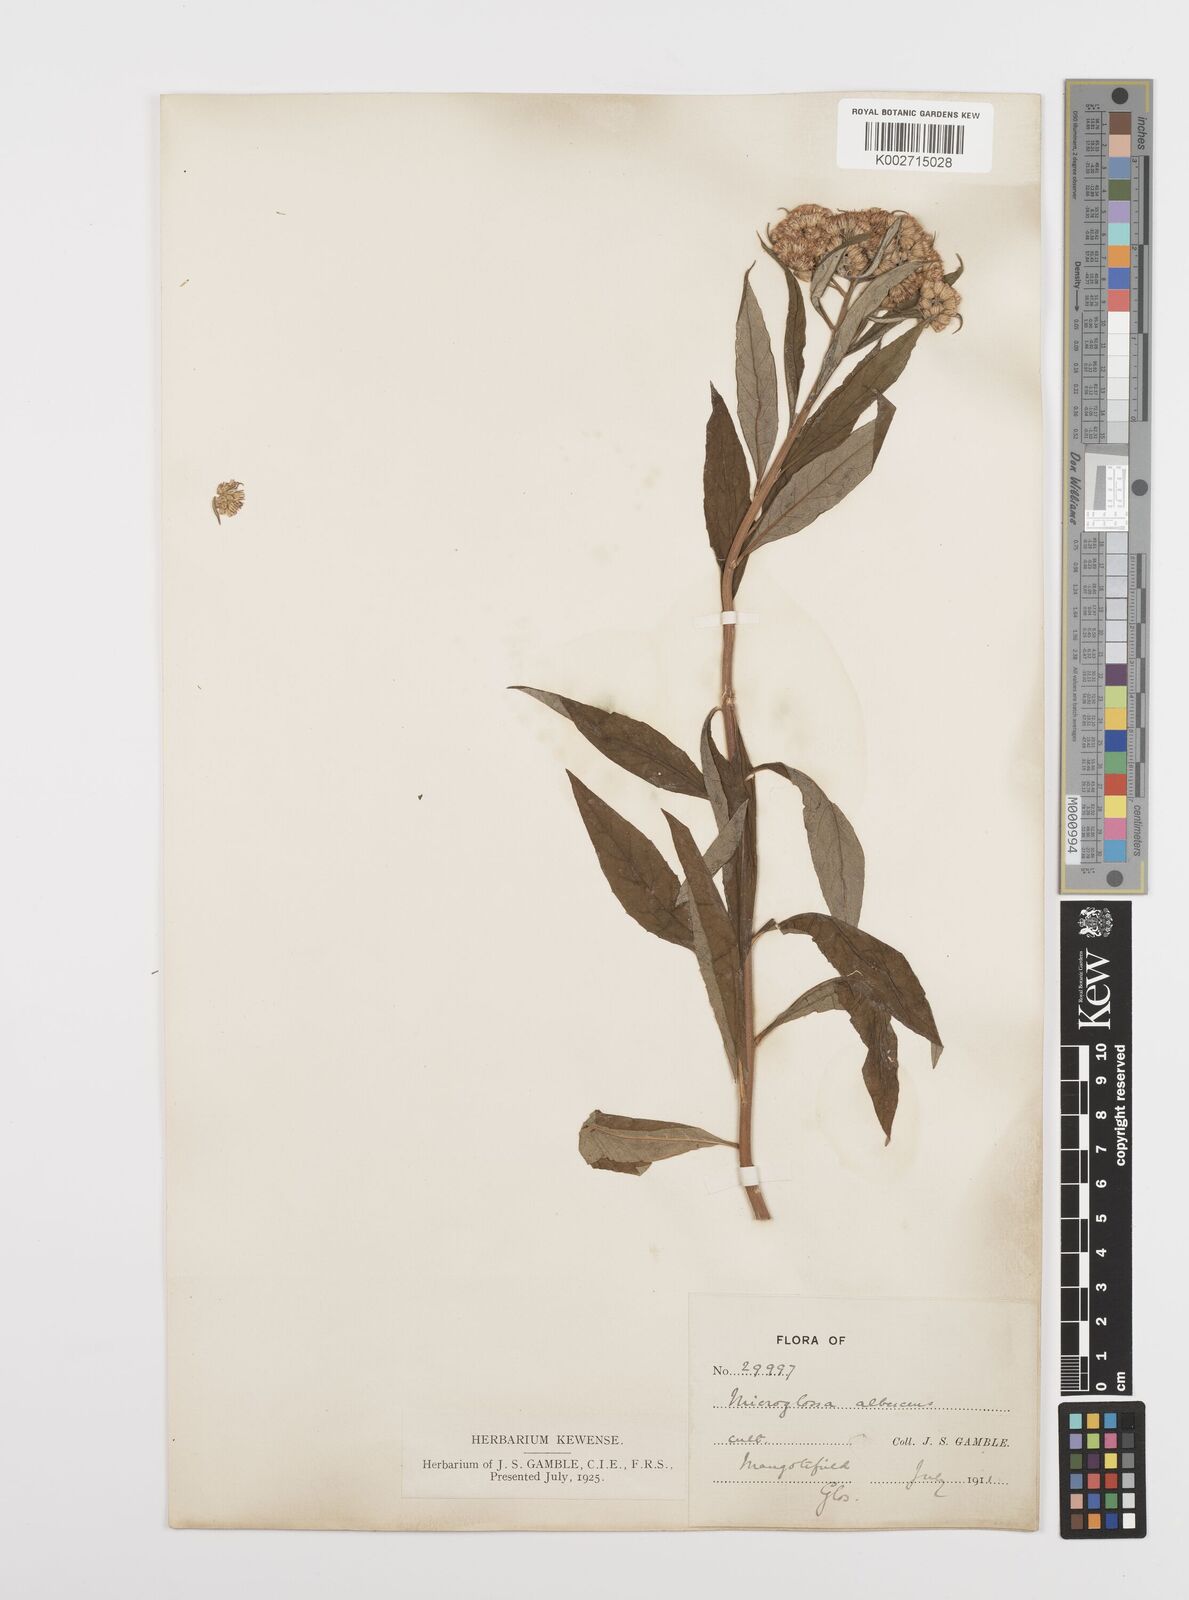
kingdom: Plantae
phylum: Tracheophyta
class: Magnoliopsida
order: Asterales
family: Asteraceae
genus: Sinosidus
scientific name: Sinosidus albescens
